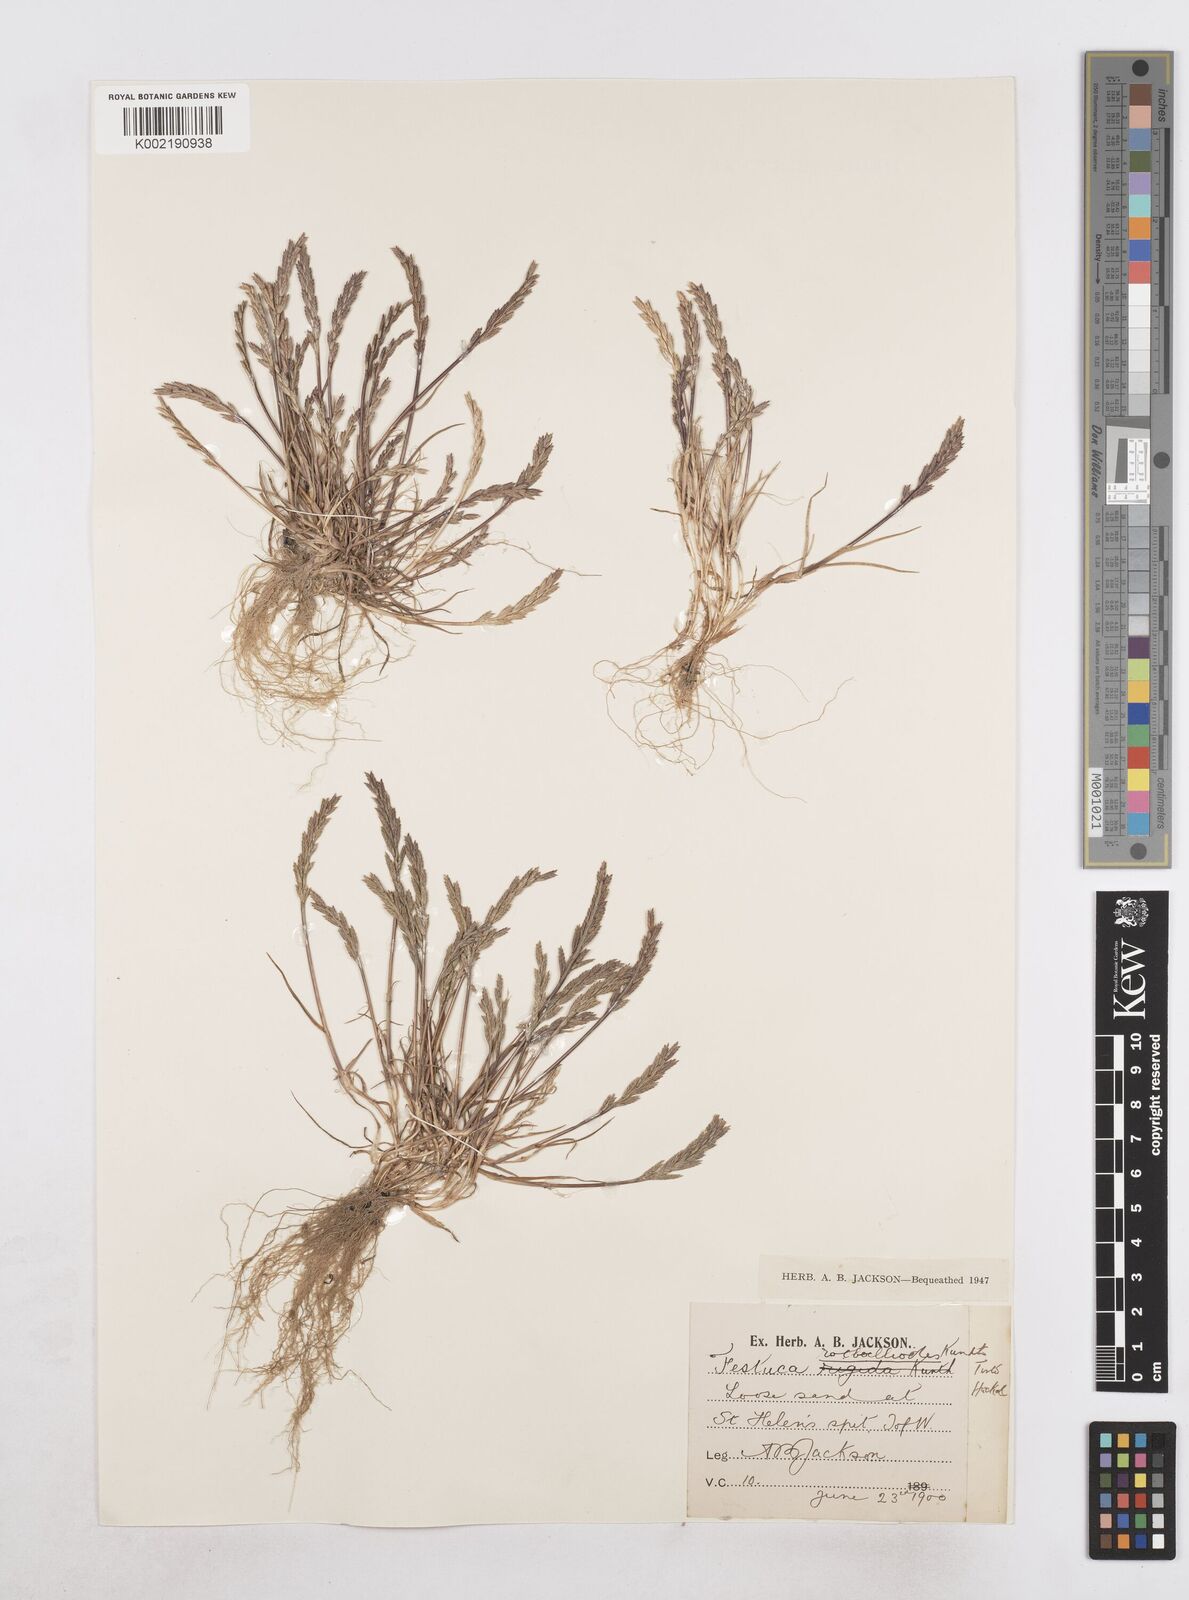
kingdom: Plantae
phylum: Tracheophyta
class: Liliopsida
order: Poales
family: Poaceae
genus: Catapodium
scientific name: Catapodium marinum
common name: Sea fern-grass
